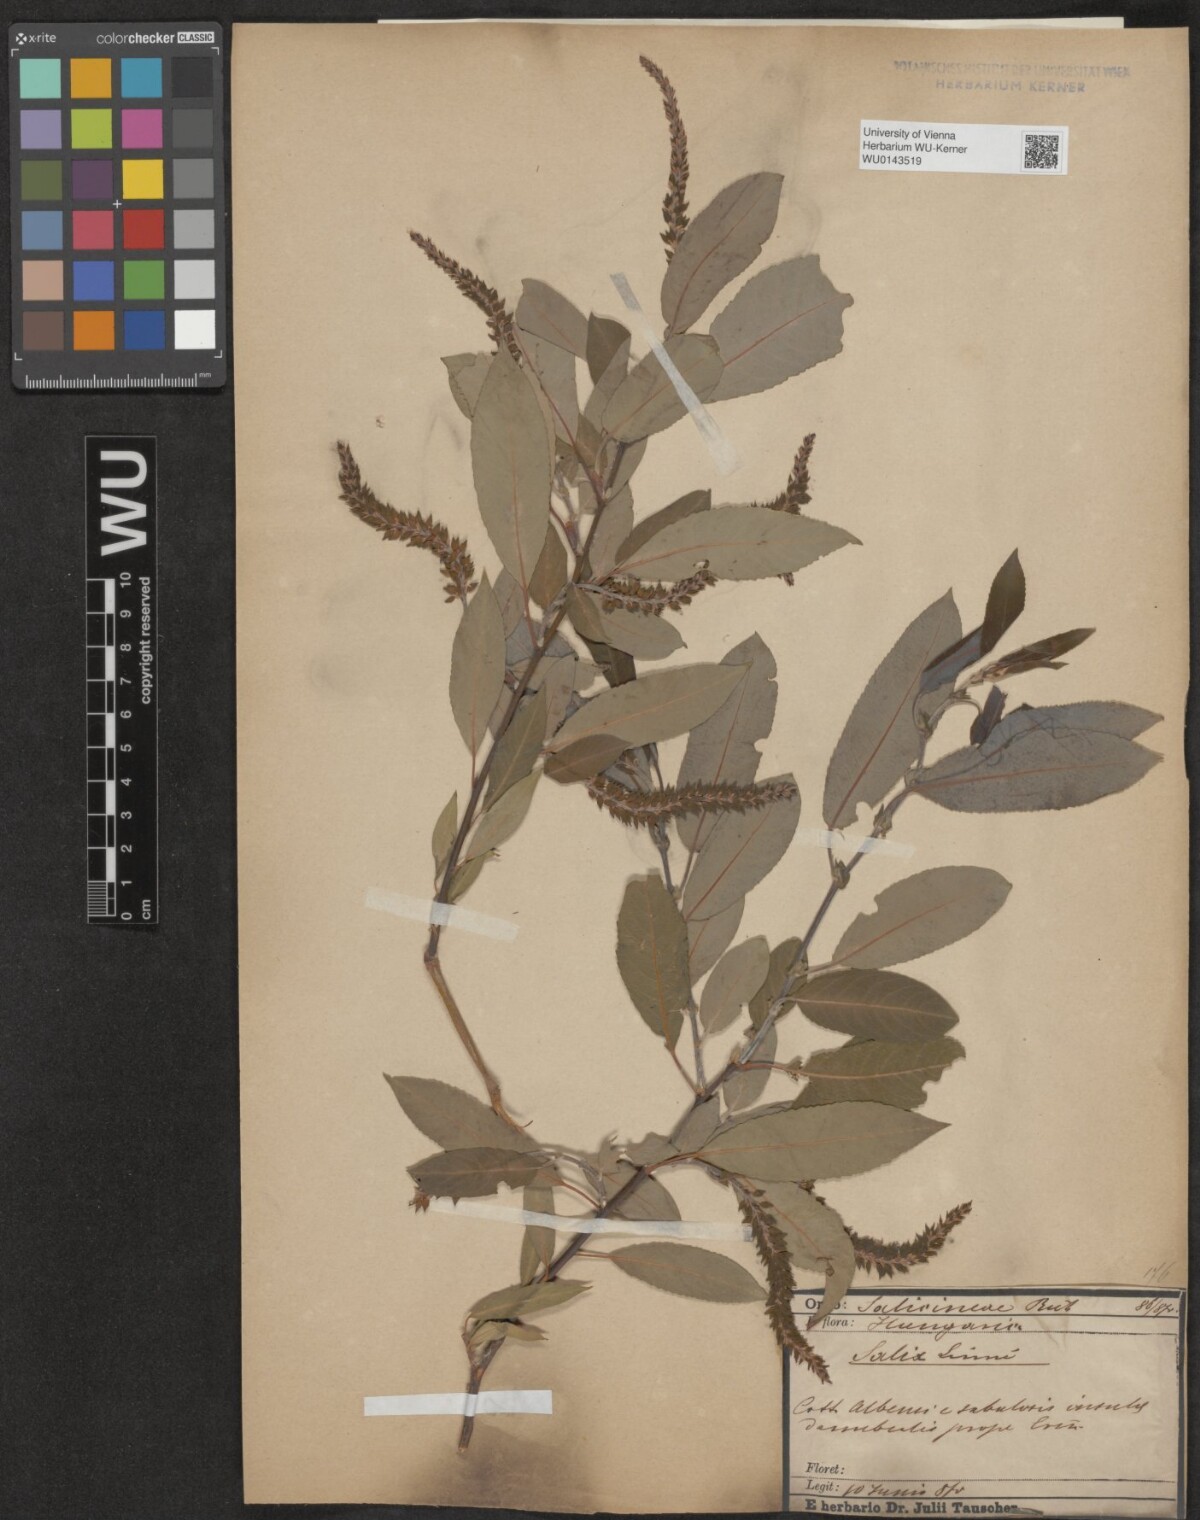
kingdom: Plantae
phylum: Tracheophyta
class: Magnoliopsida
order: Malpighiales
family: Salicaceae
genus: Salix
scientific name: Salix triandra
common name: Almond willow
